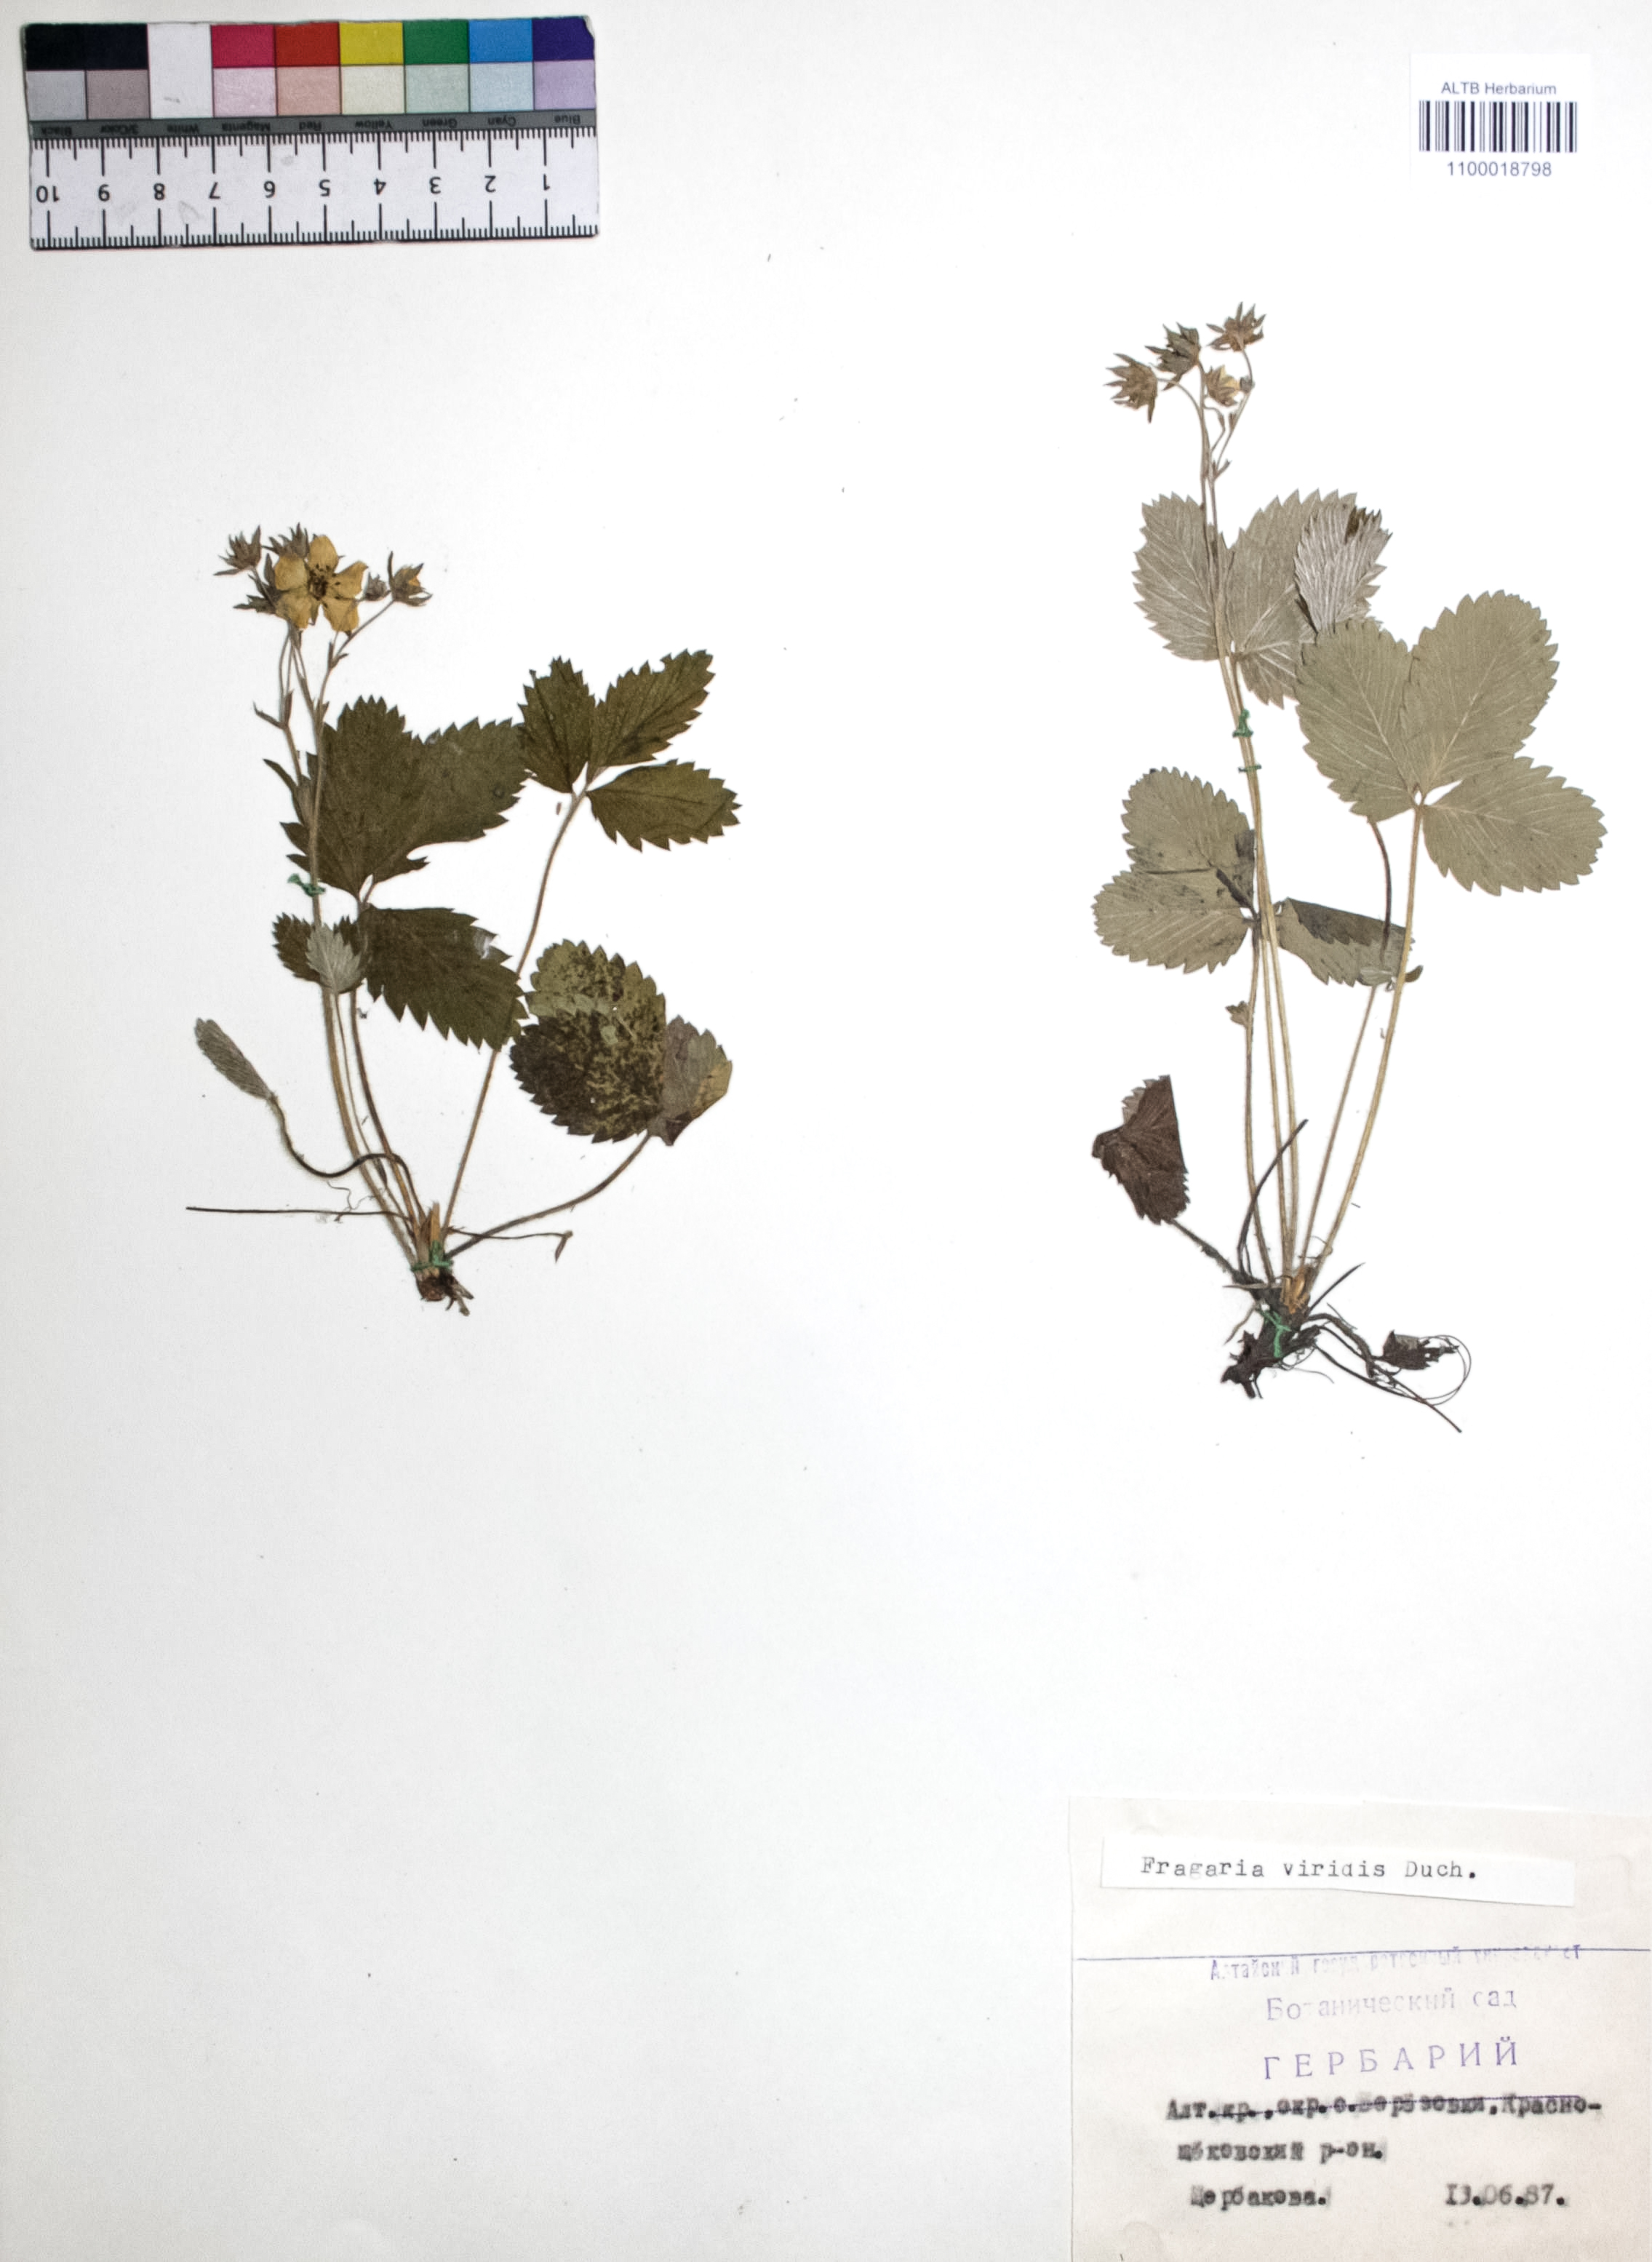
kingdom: Plantae
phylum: Tracheophyta
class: Magnoliopsida
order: Rosales
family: Rosaceae
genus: Fragaria
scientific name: Fragaria viridis
